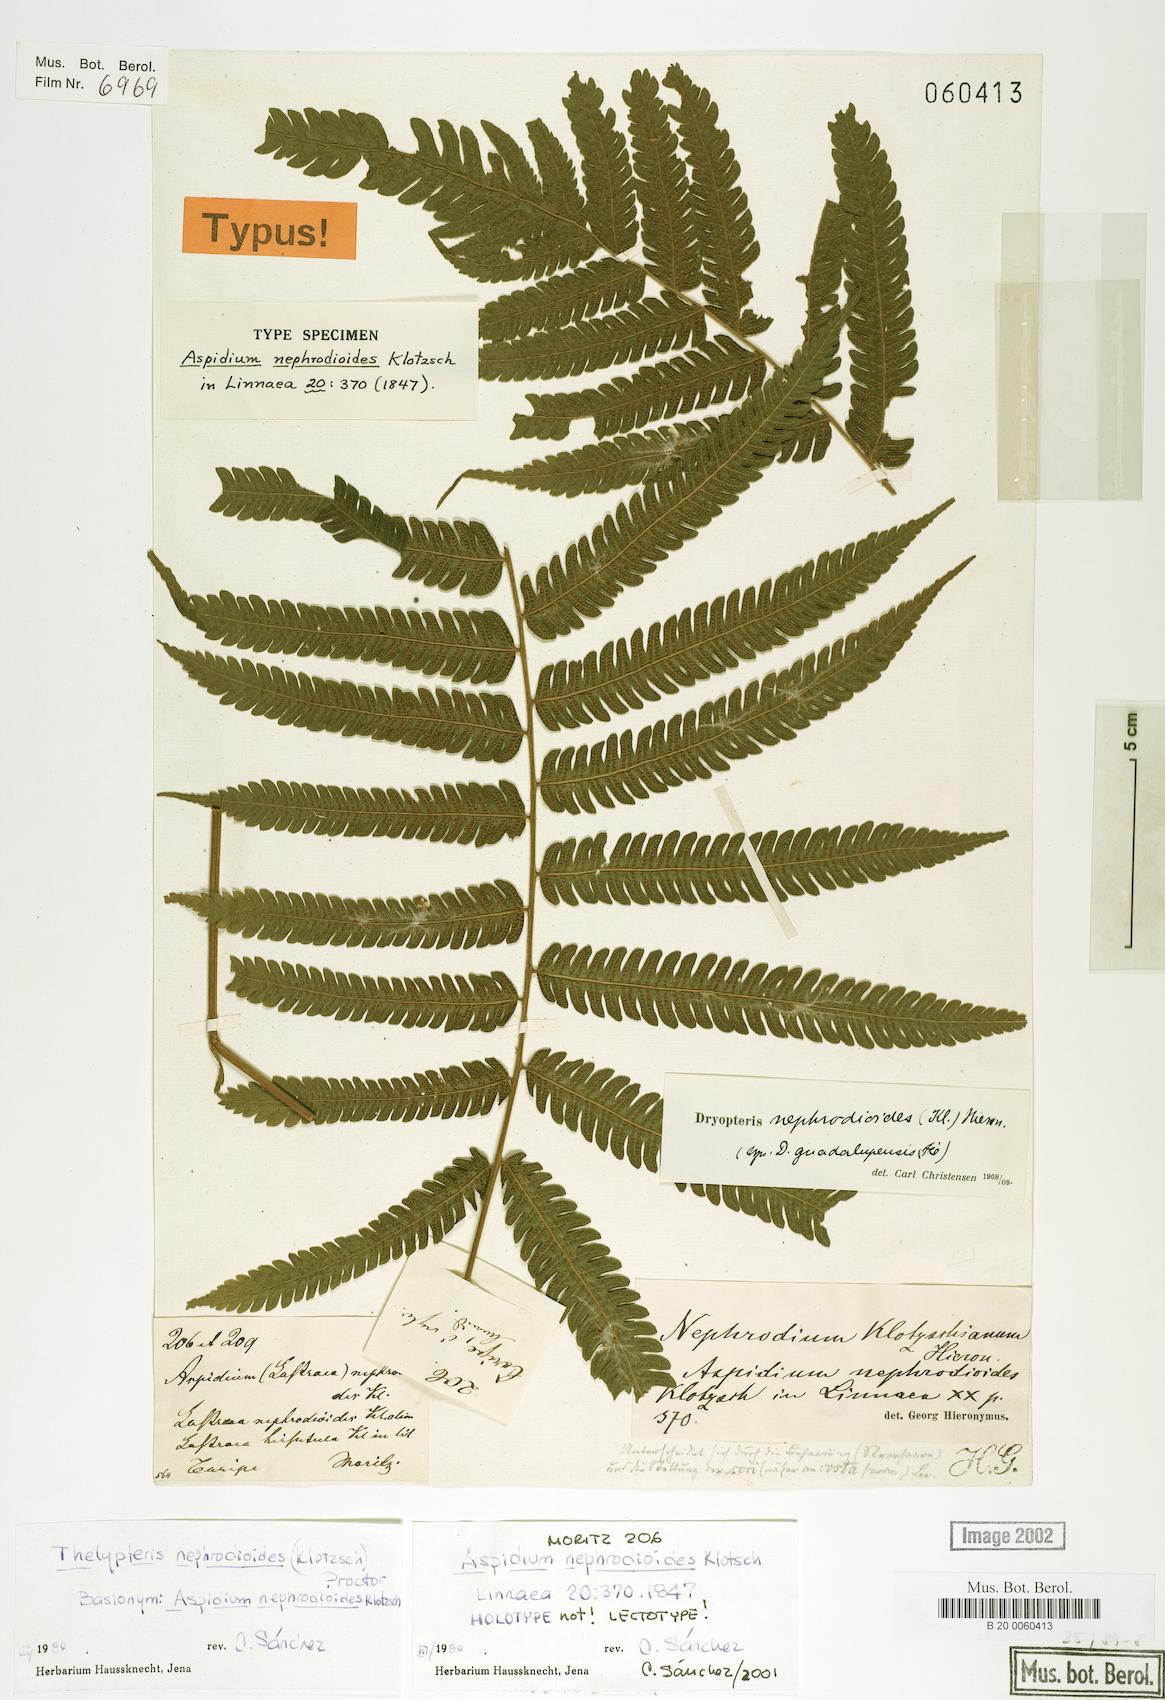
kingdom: Plantae
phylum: Tracheophyta
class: Polypodiopsida
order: Polypodiales
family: Thelypteridaceae
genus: Goniopteris
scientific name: Goniopteris nephrodioides
